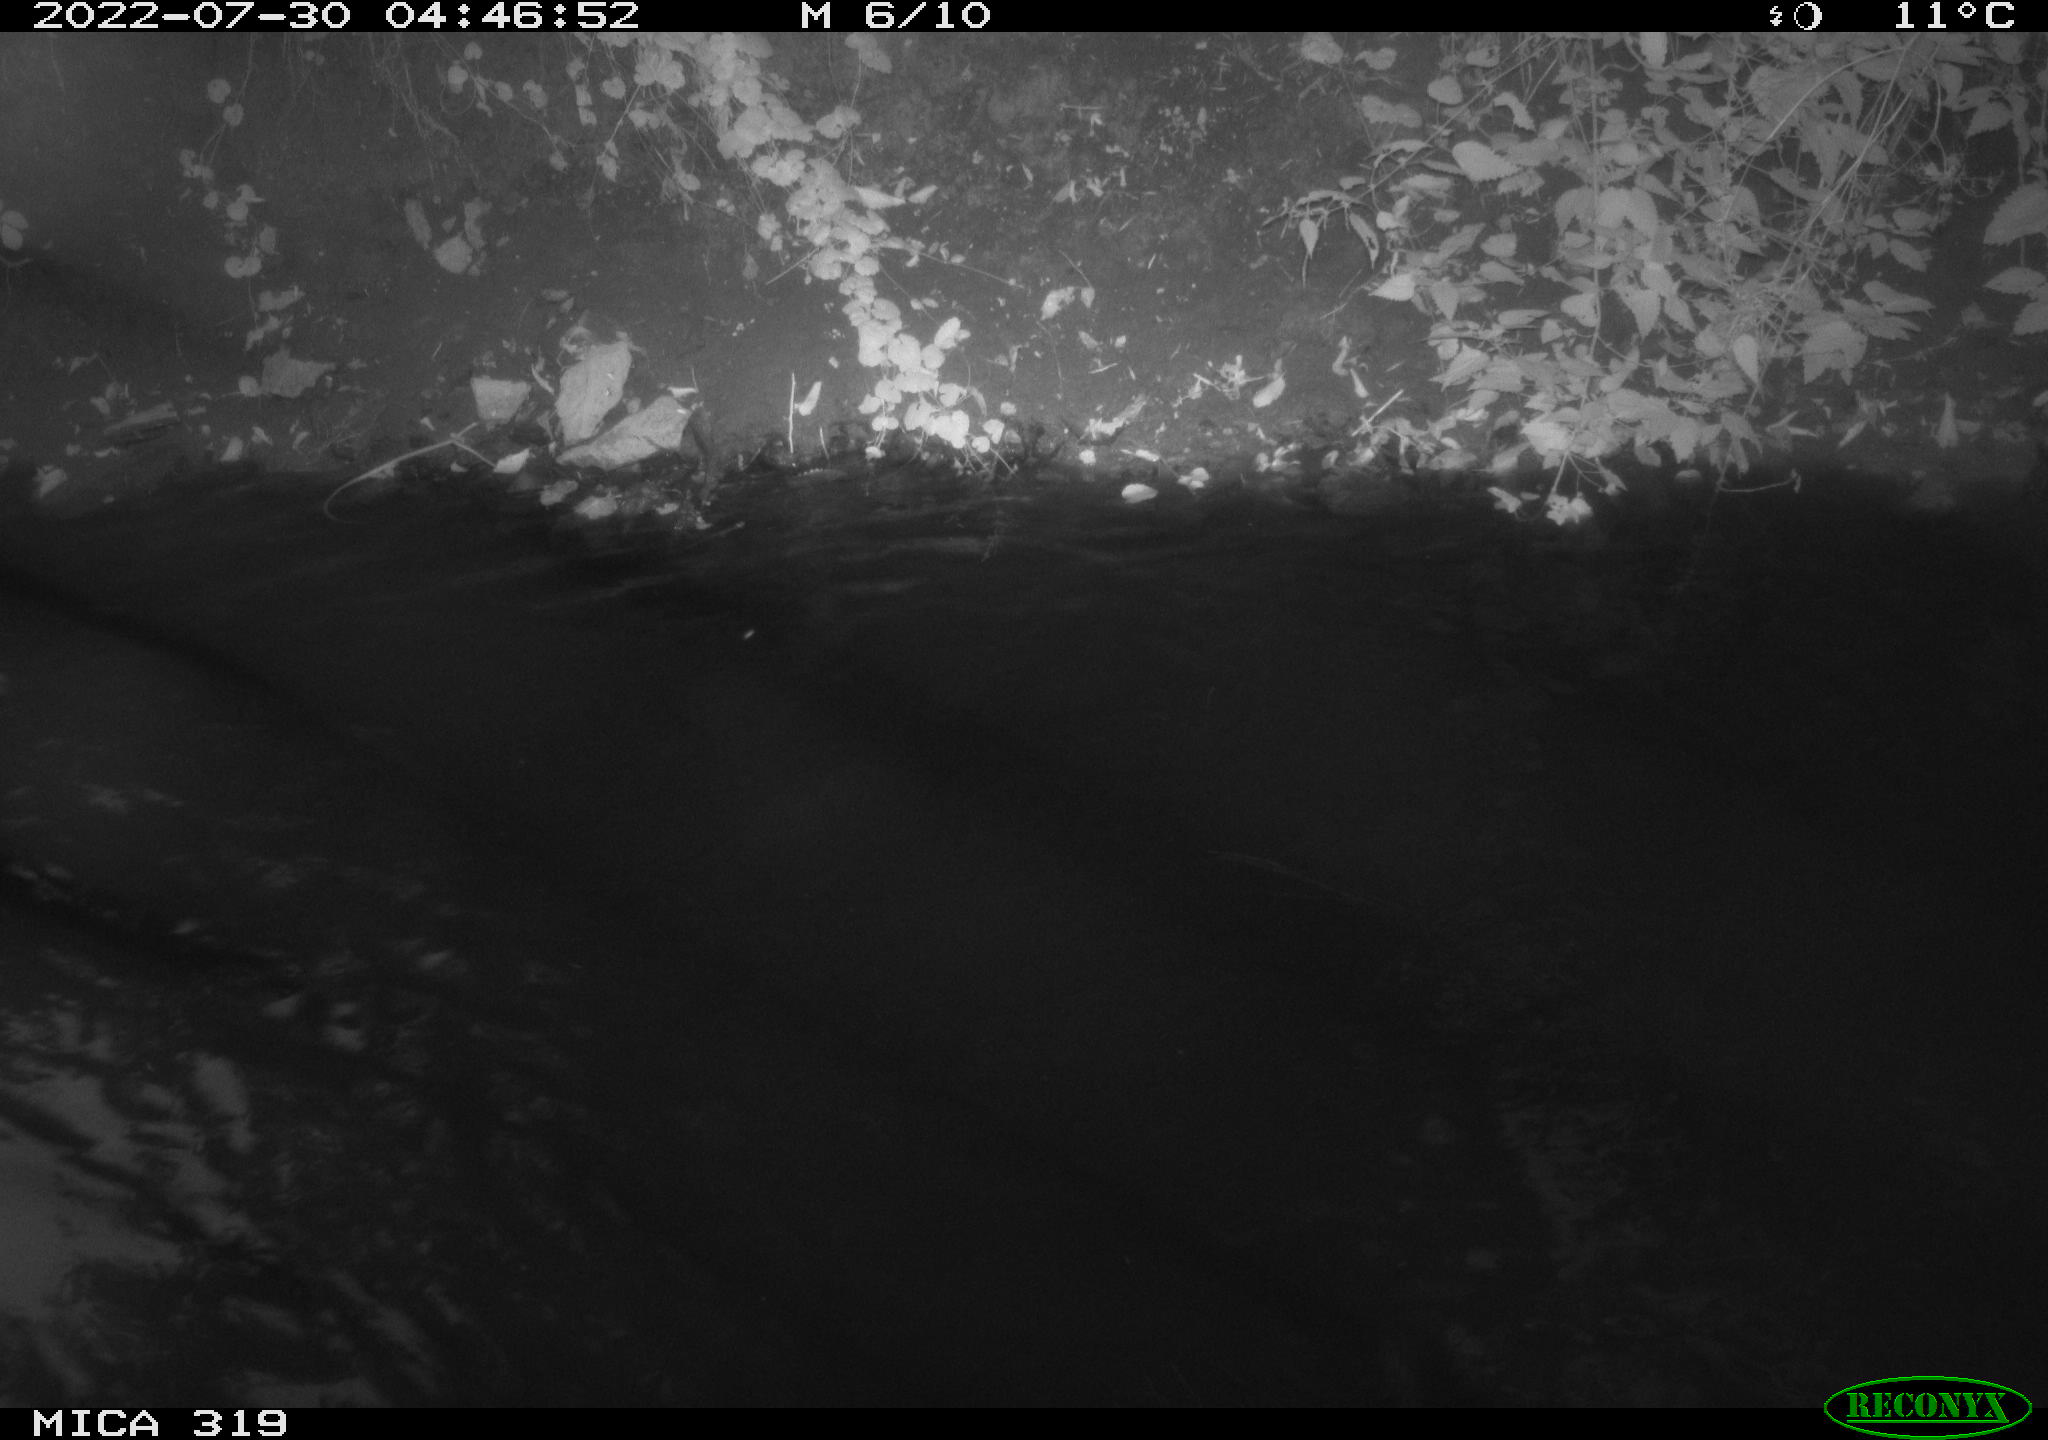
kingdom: Animalia
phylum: Chordata
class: Aves
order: Anseriformes
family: Anatidae
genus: Anas
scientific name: Anas
